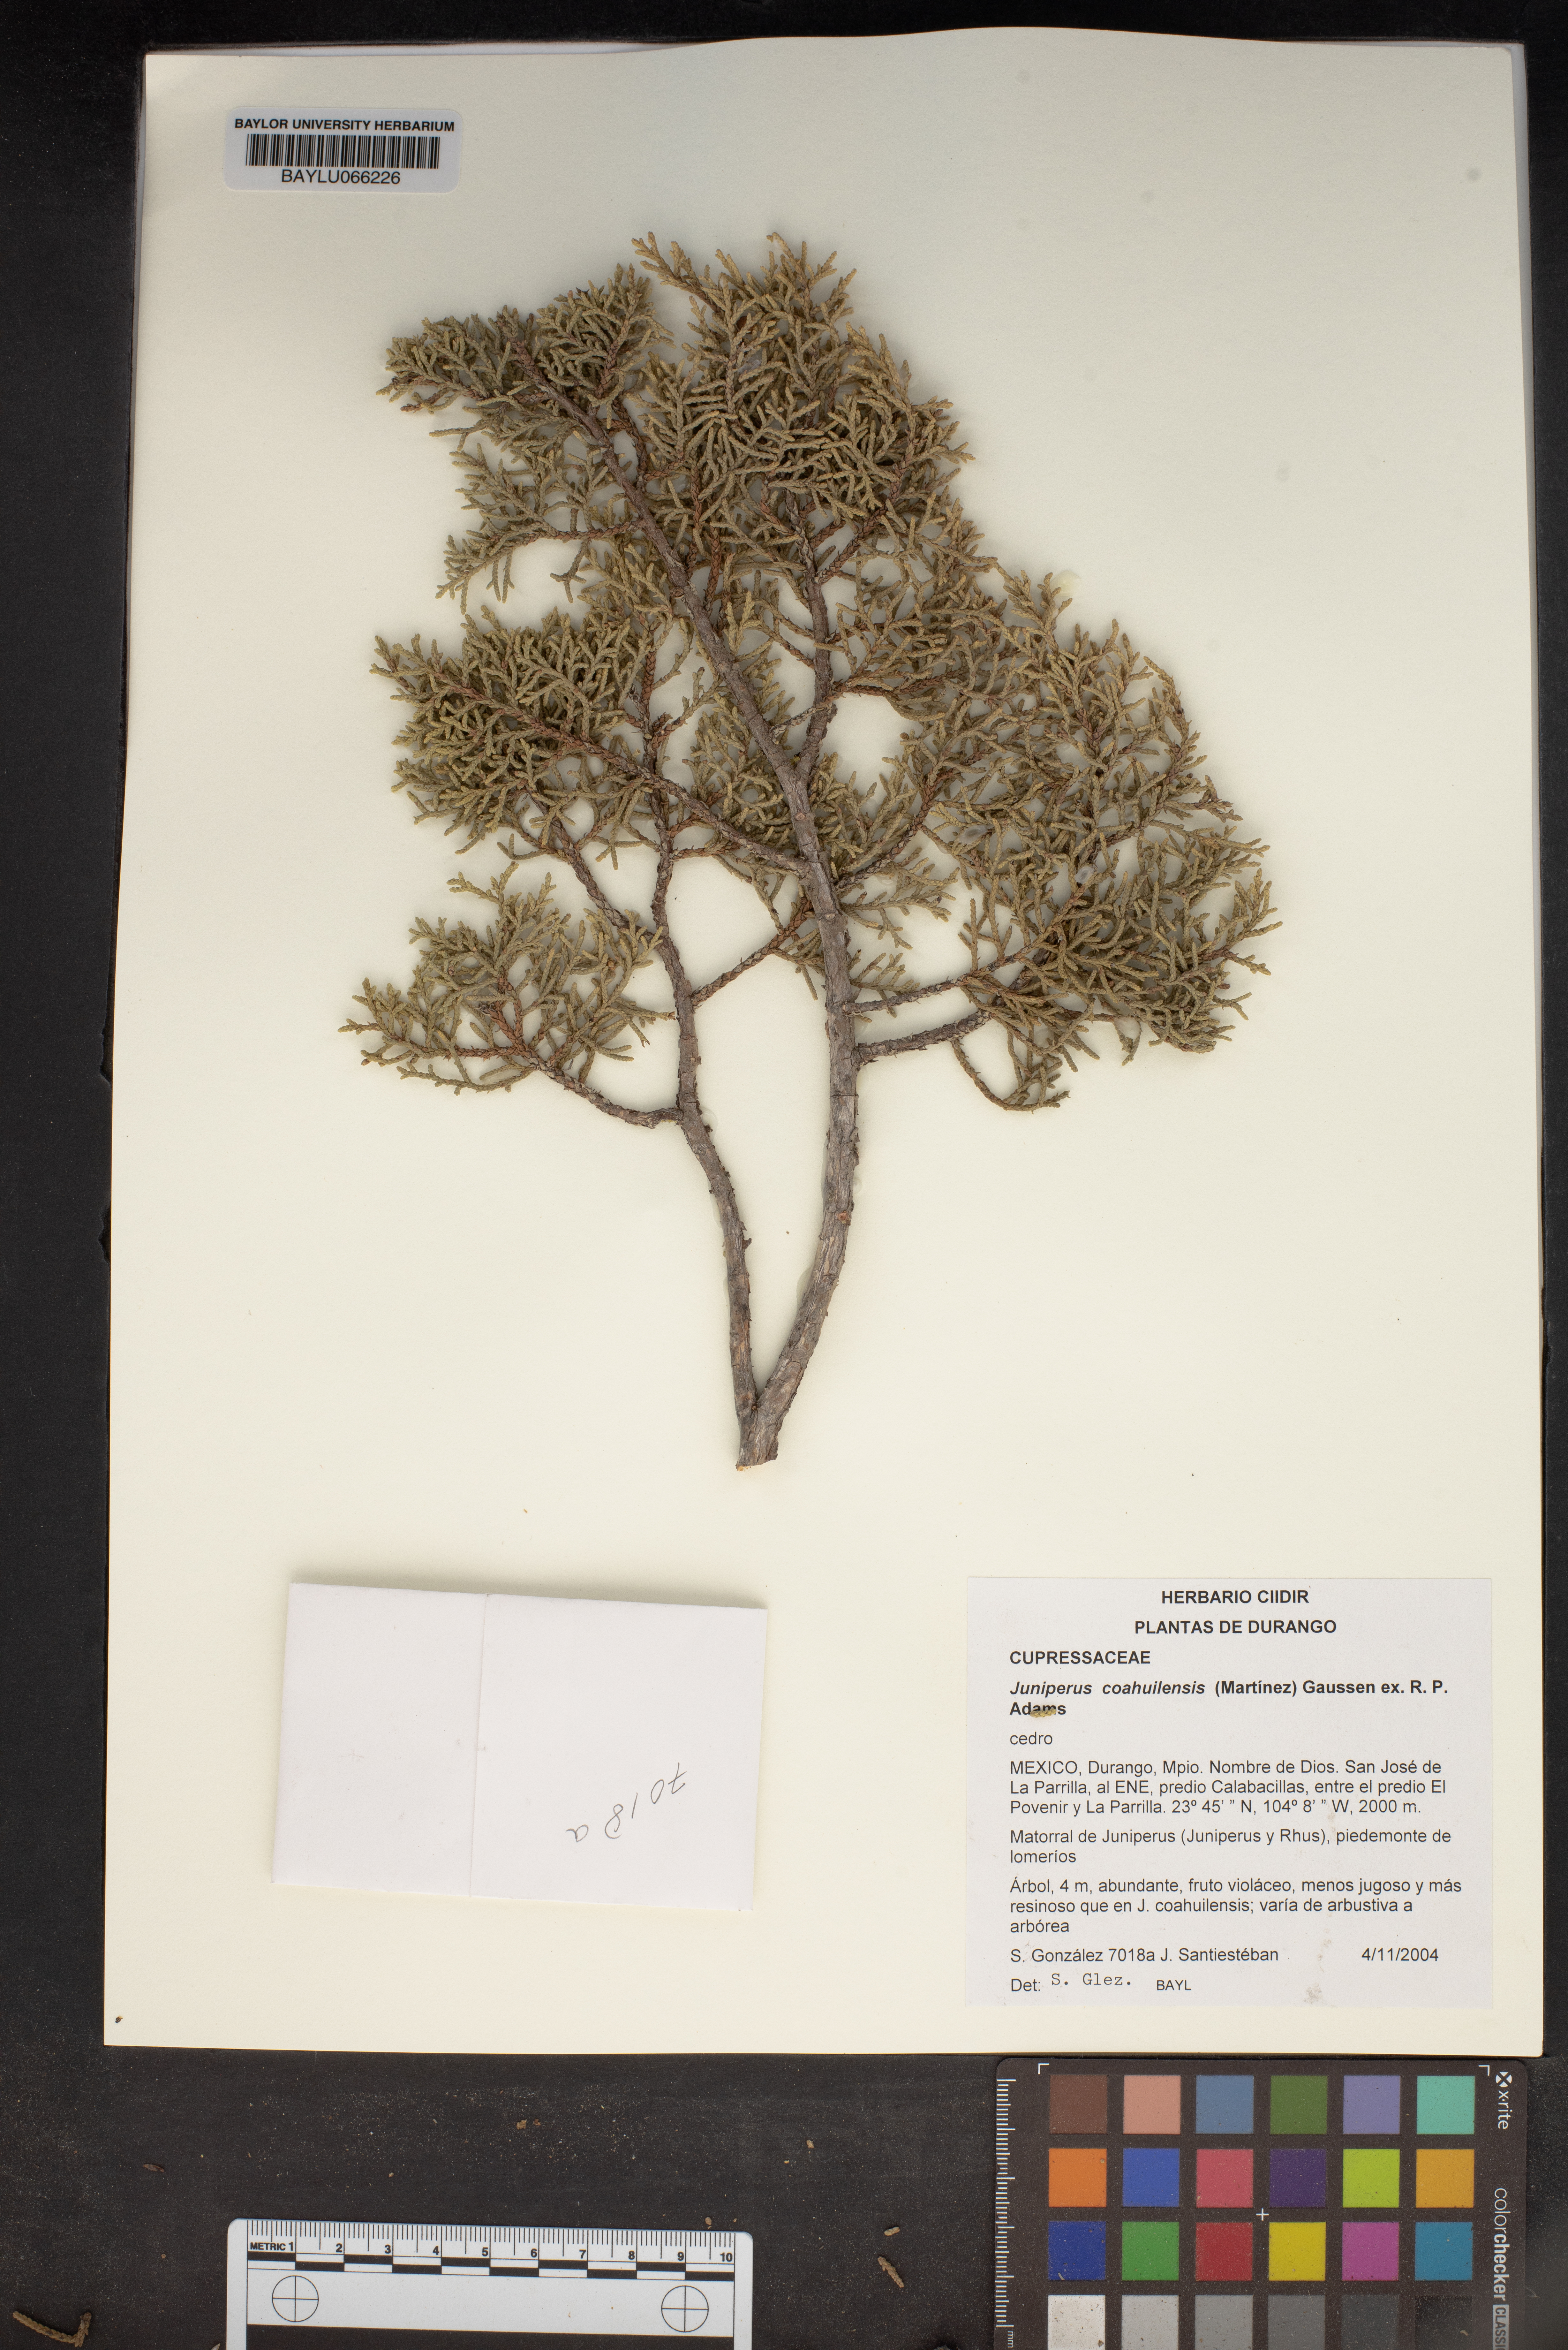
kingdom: Plantae
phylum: Tracheophyta
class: Pinopsida
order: Pinales
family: Cupressaceae
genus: Juniperus
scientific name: Juniperus coahuilensis
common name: Roseberry
